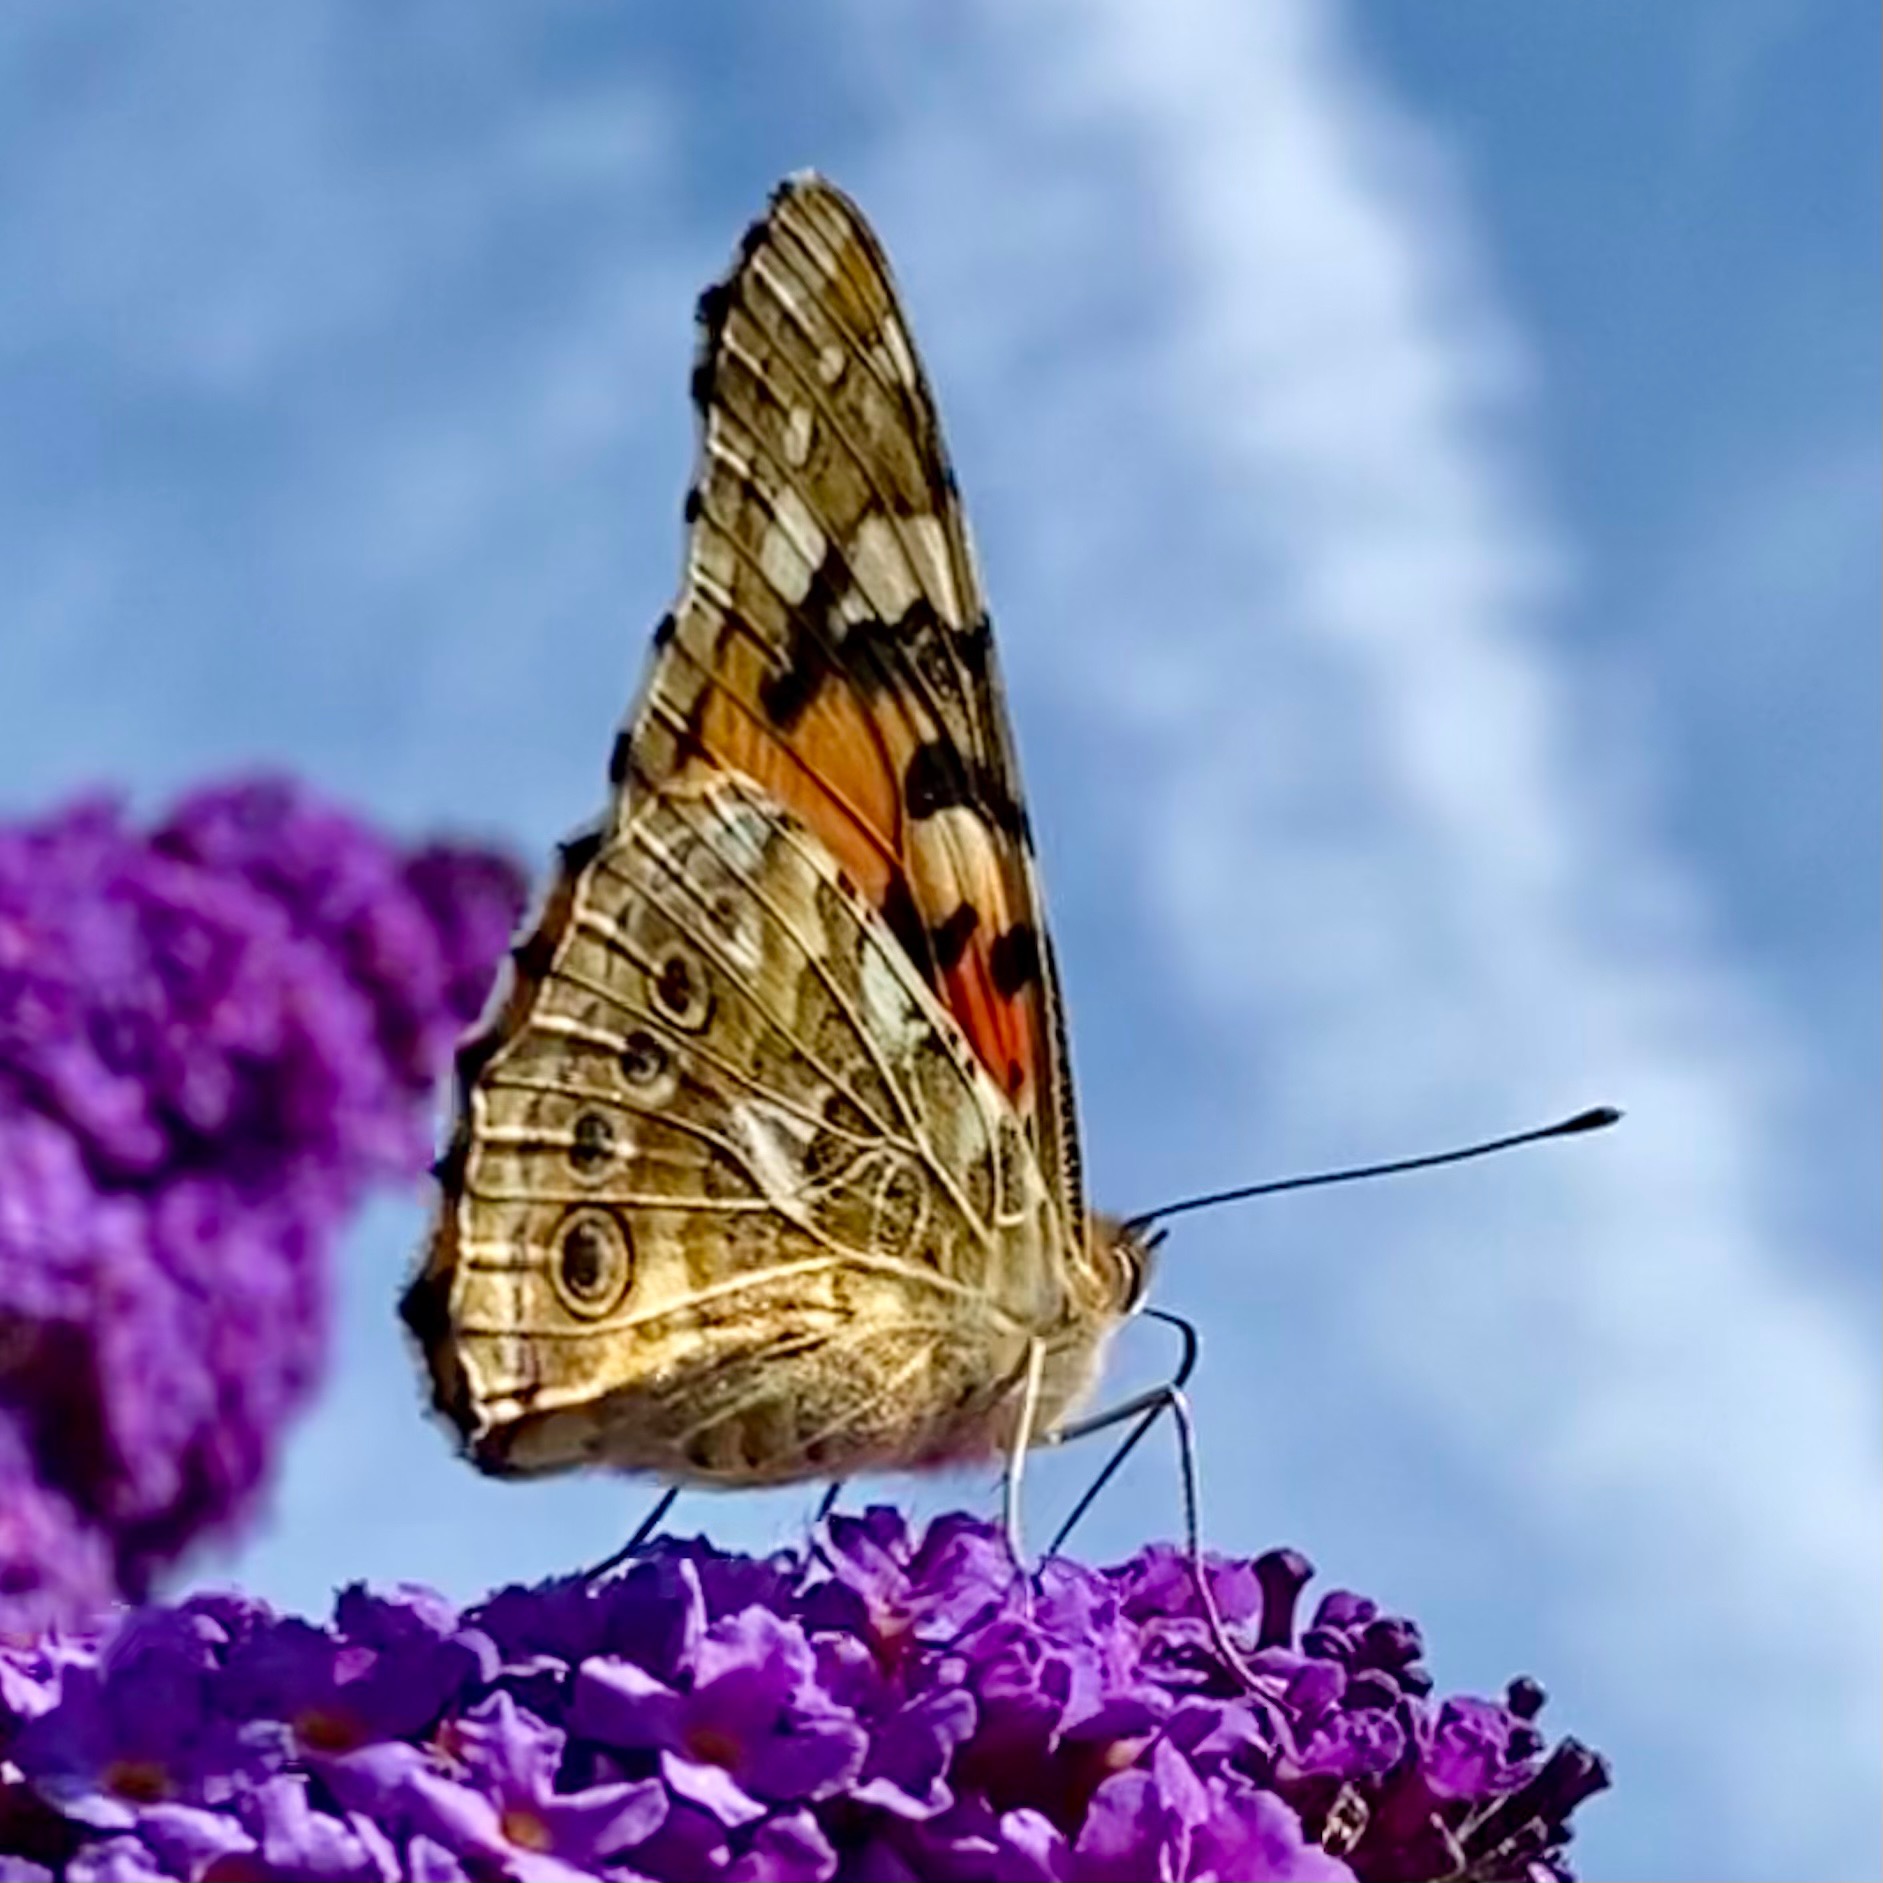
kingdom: Animalia
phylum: Arthropoda
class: Insecta
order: Lepidoptera
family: Nymphalidae
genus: Vanessa
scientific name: Vanessa cardui
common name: Tidselsommerfugl
